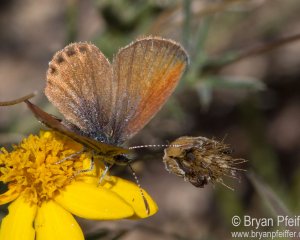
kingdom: Animalia
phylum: Arthropoda
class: Insecta
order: Lepidoptera
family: Lycaenidae
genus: Brephidium
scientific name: Brephidium exilis
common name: Western Pygmy-Blue
